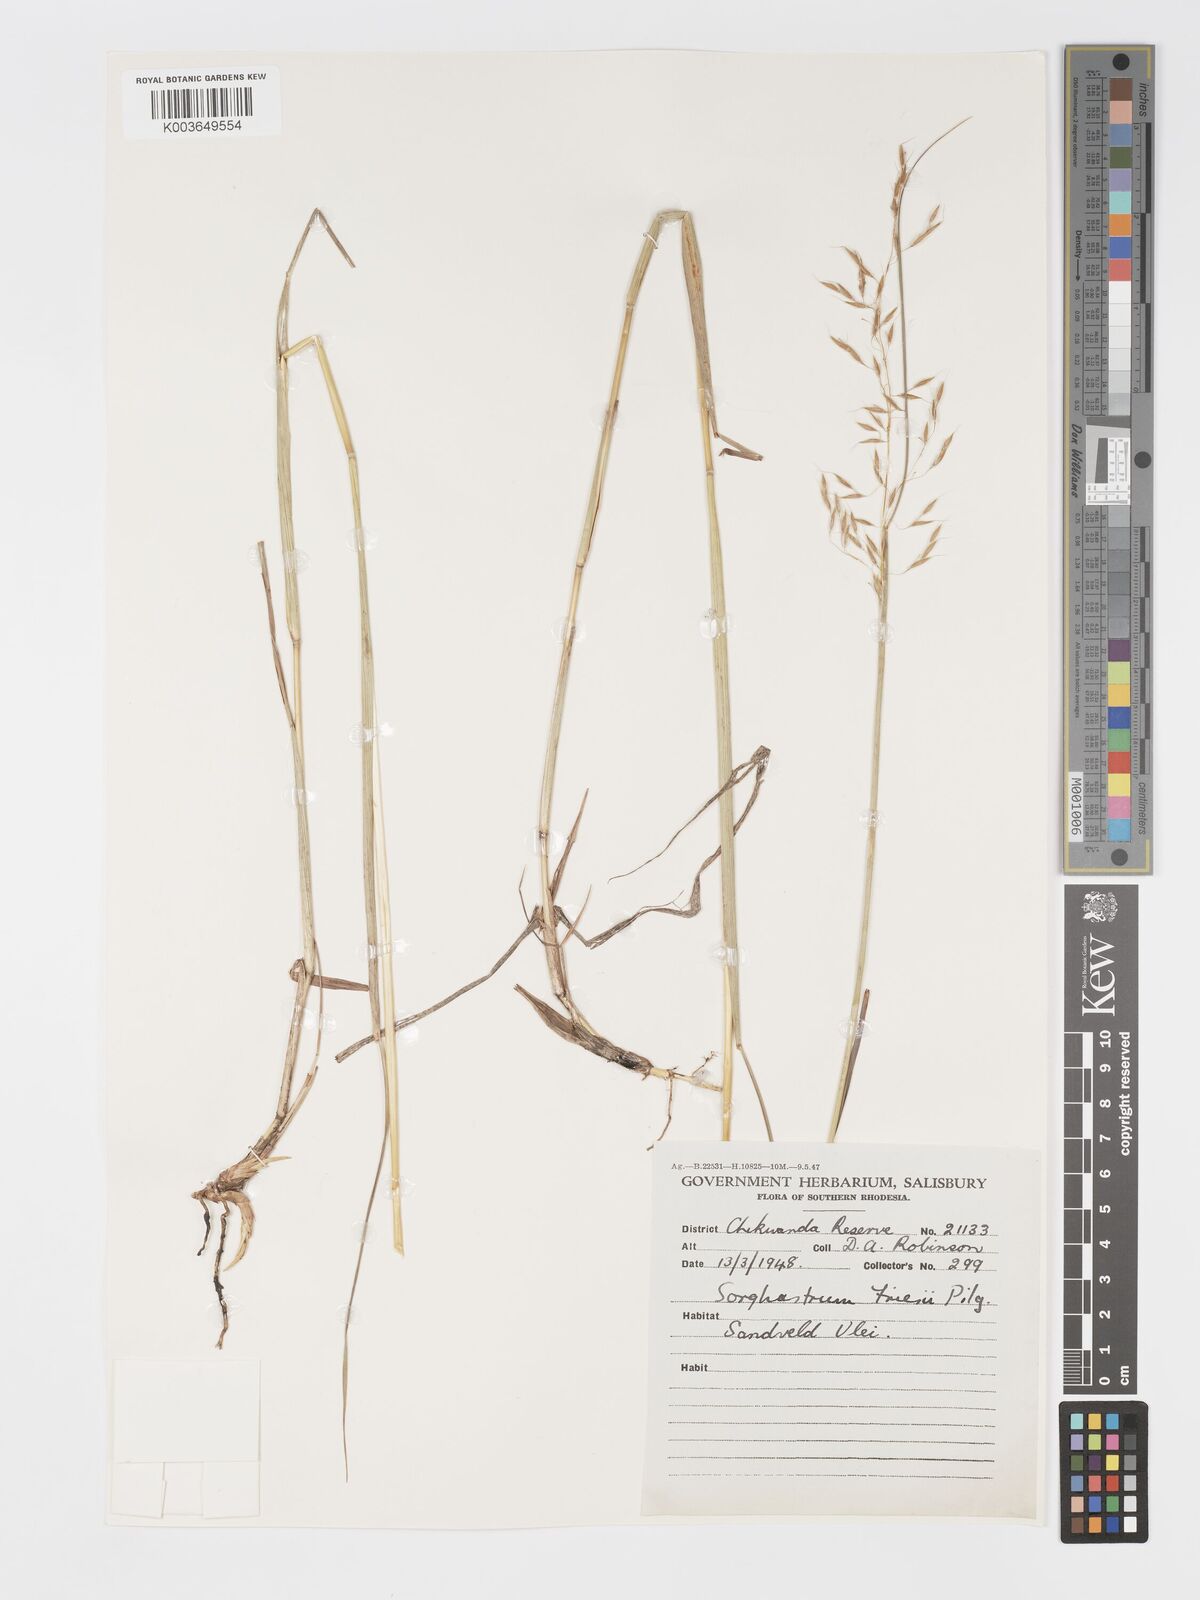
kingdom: Plantae
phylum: Tracheophyta
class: Liliopsida
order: Poales
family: Poaceae
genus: Sorghastrum
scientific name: Sorghastrum nudipes
